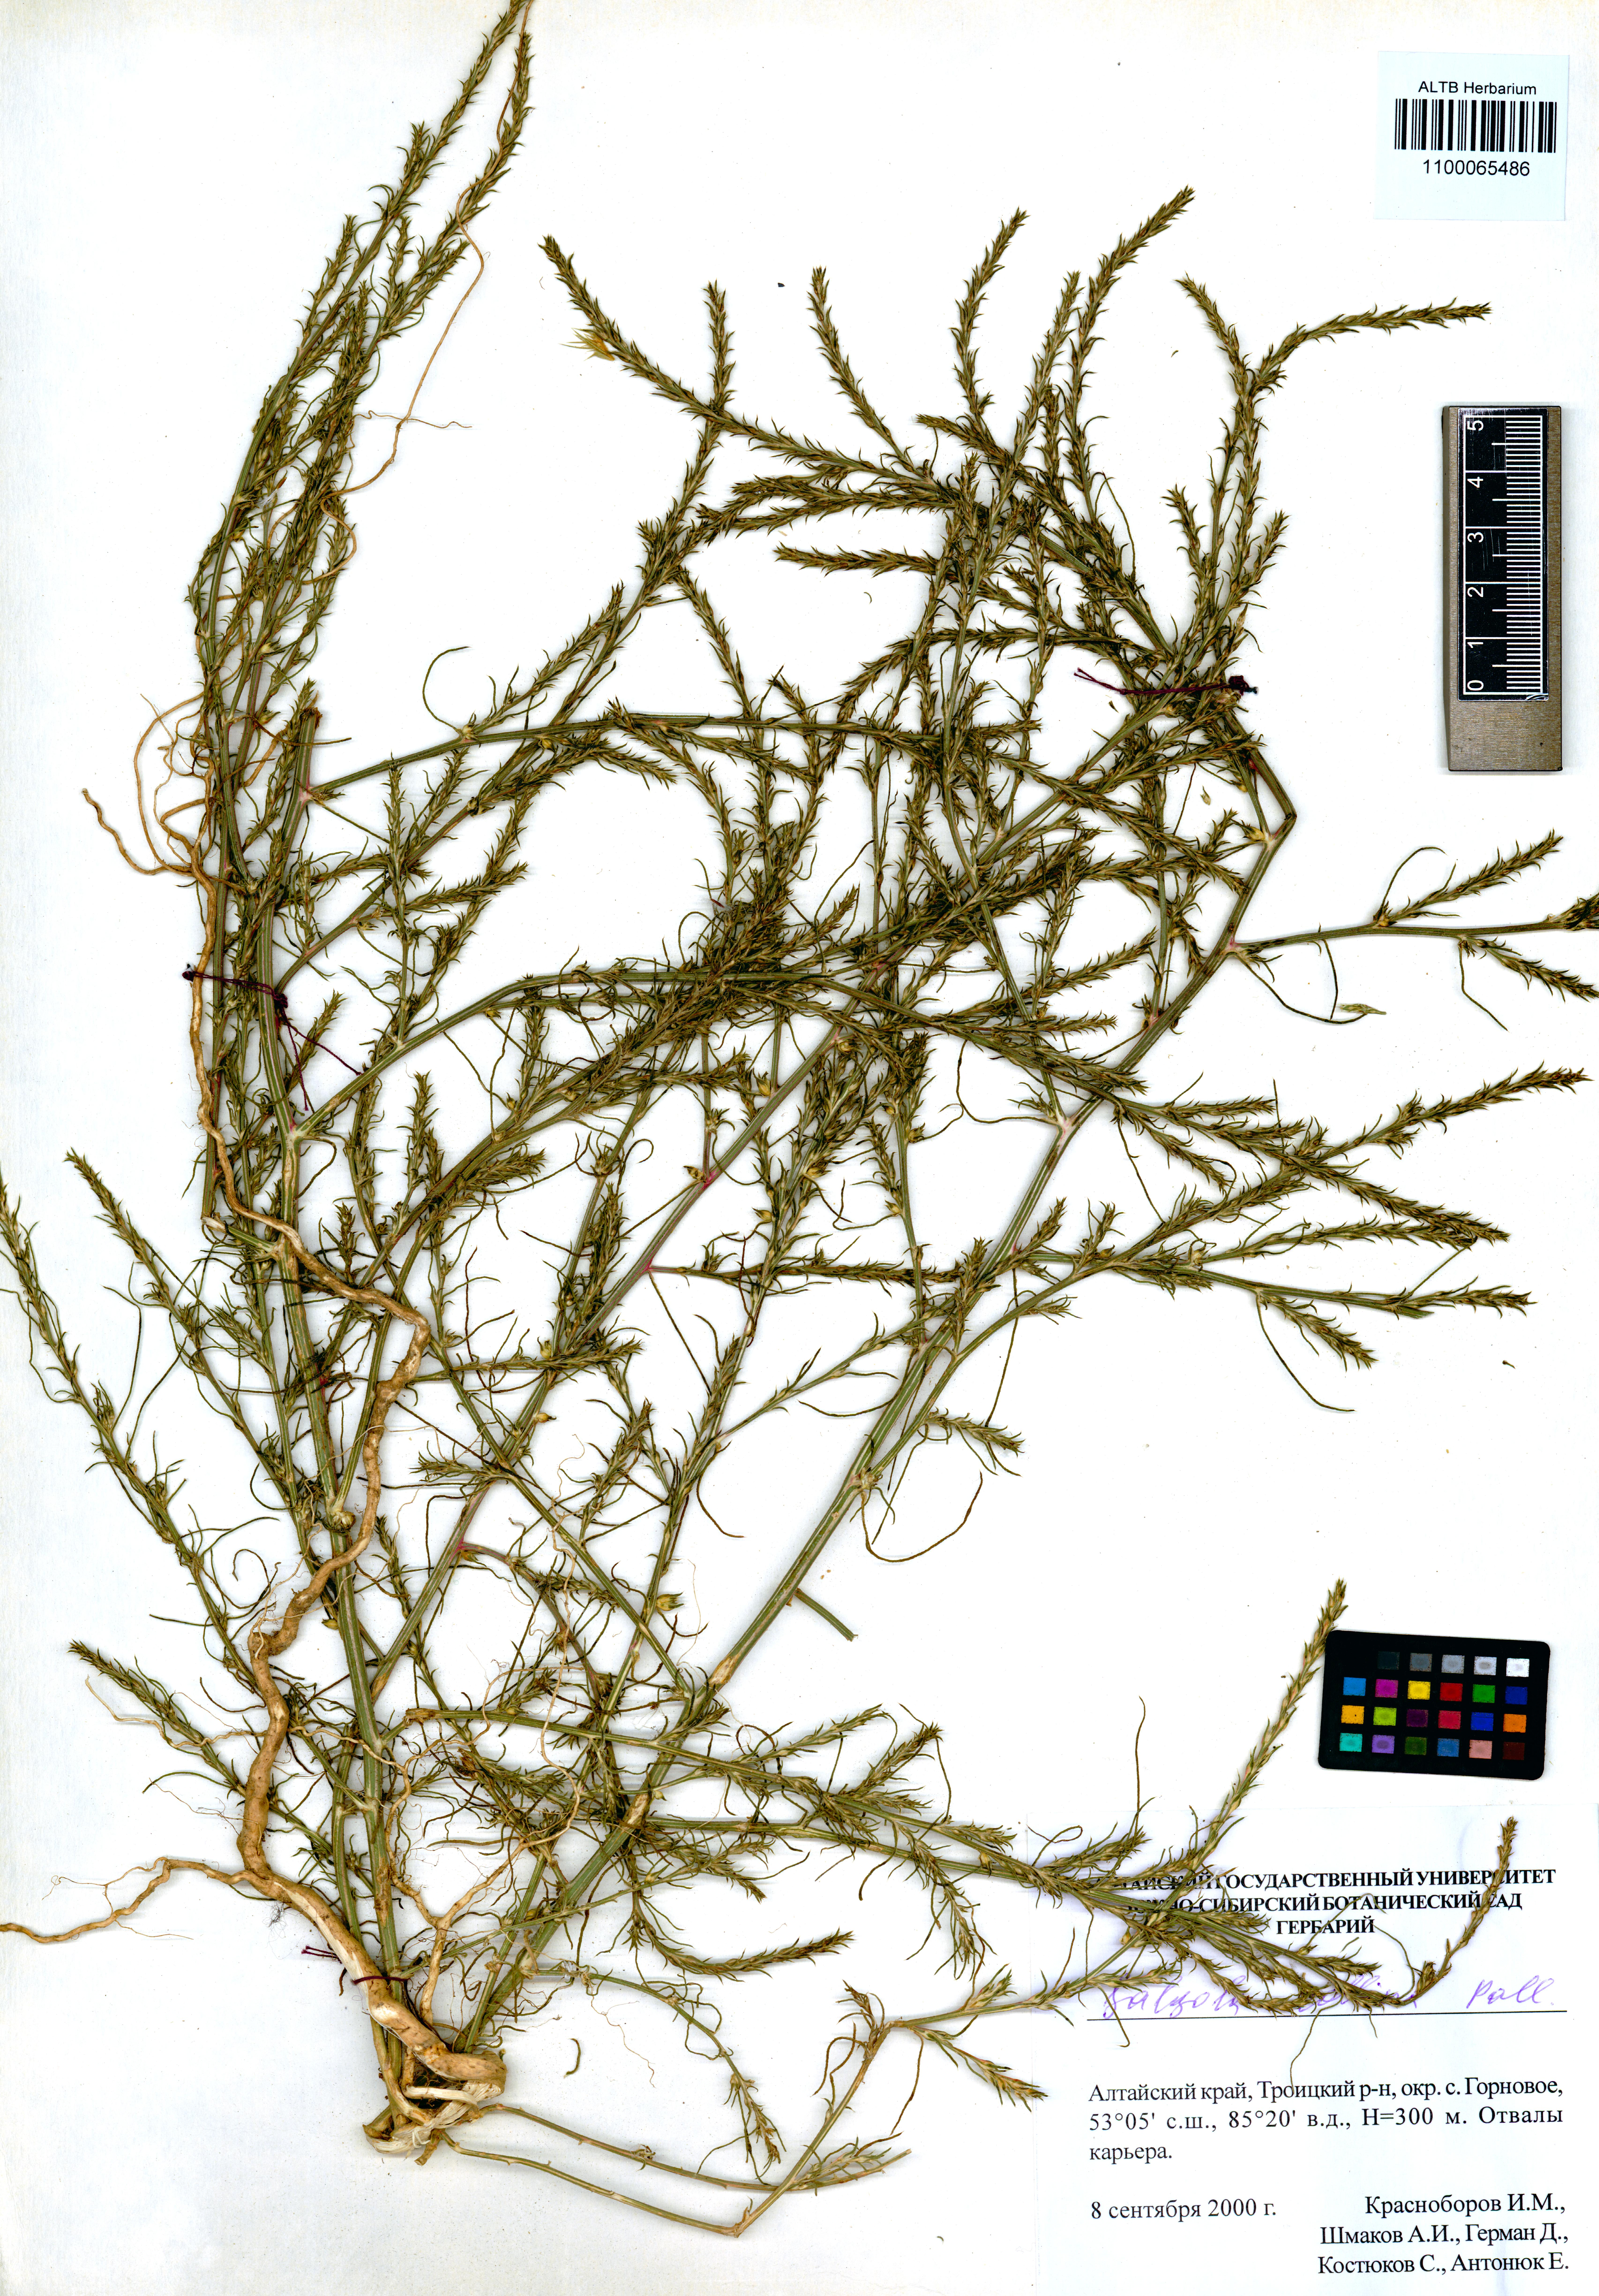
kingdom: Plantae
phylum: Tracheophyta
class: Magnoliopsida
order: Caryophyllales
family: Amaranthaceae
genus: Salsola
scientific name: Salsola collina
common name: Tumbleweed
